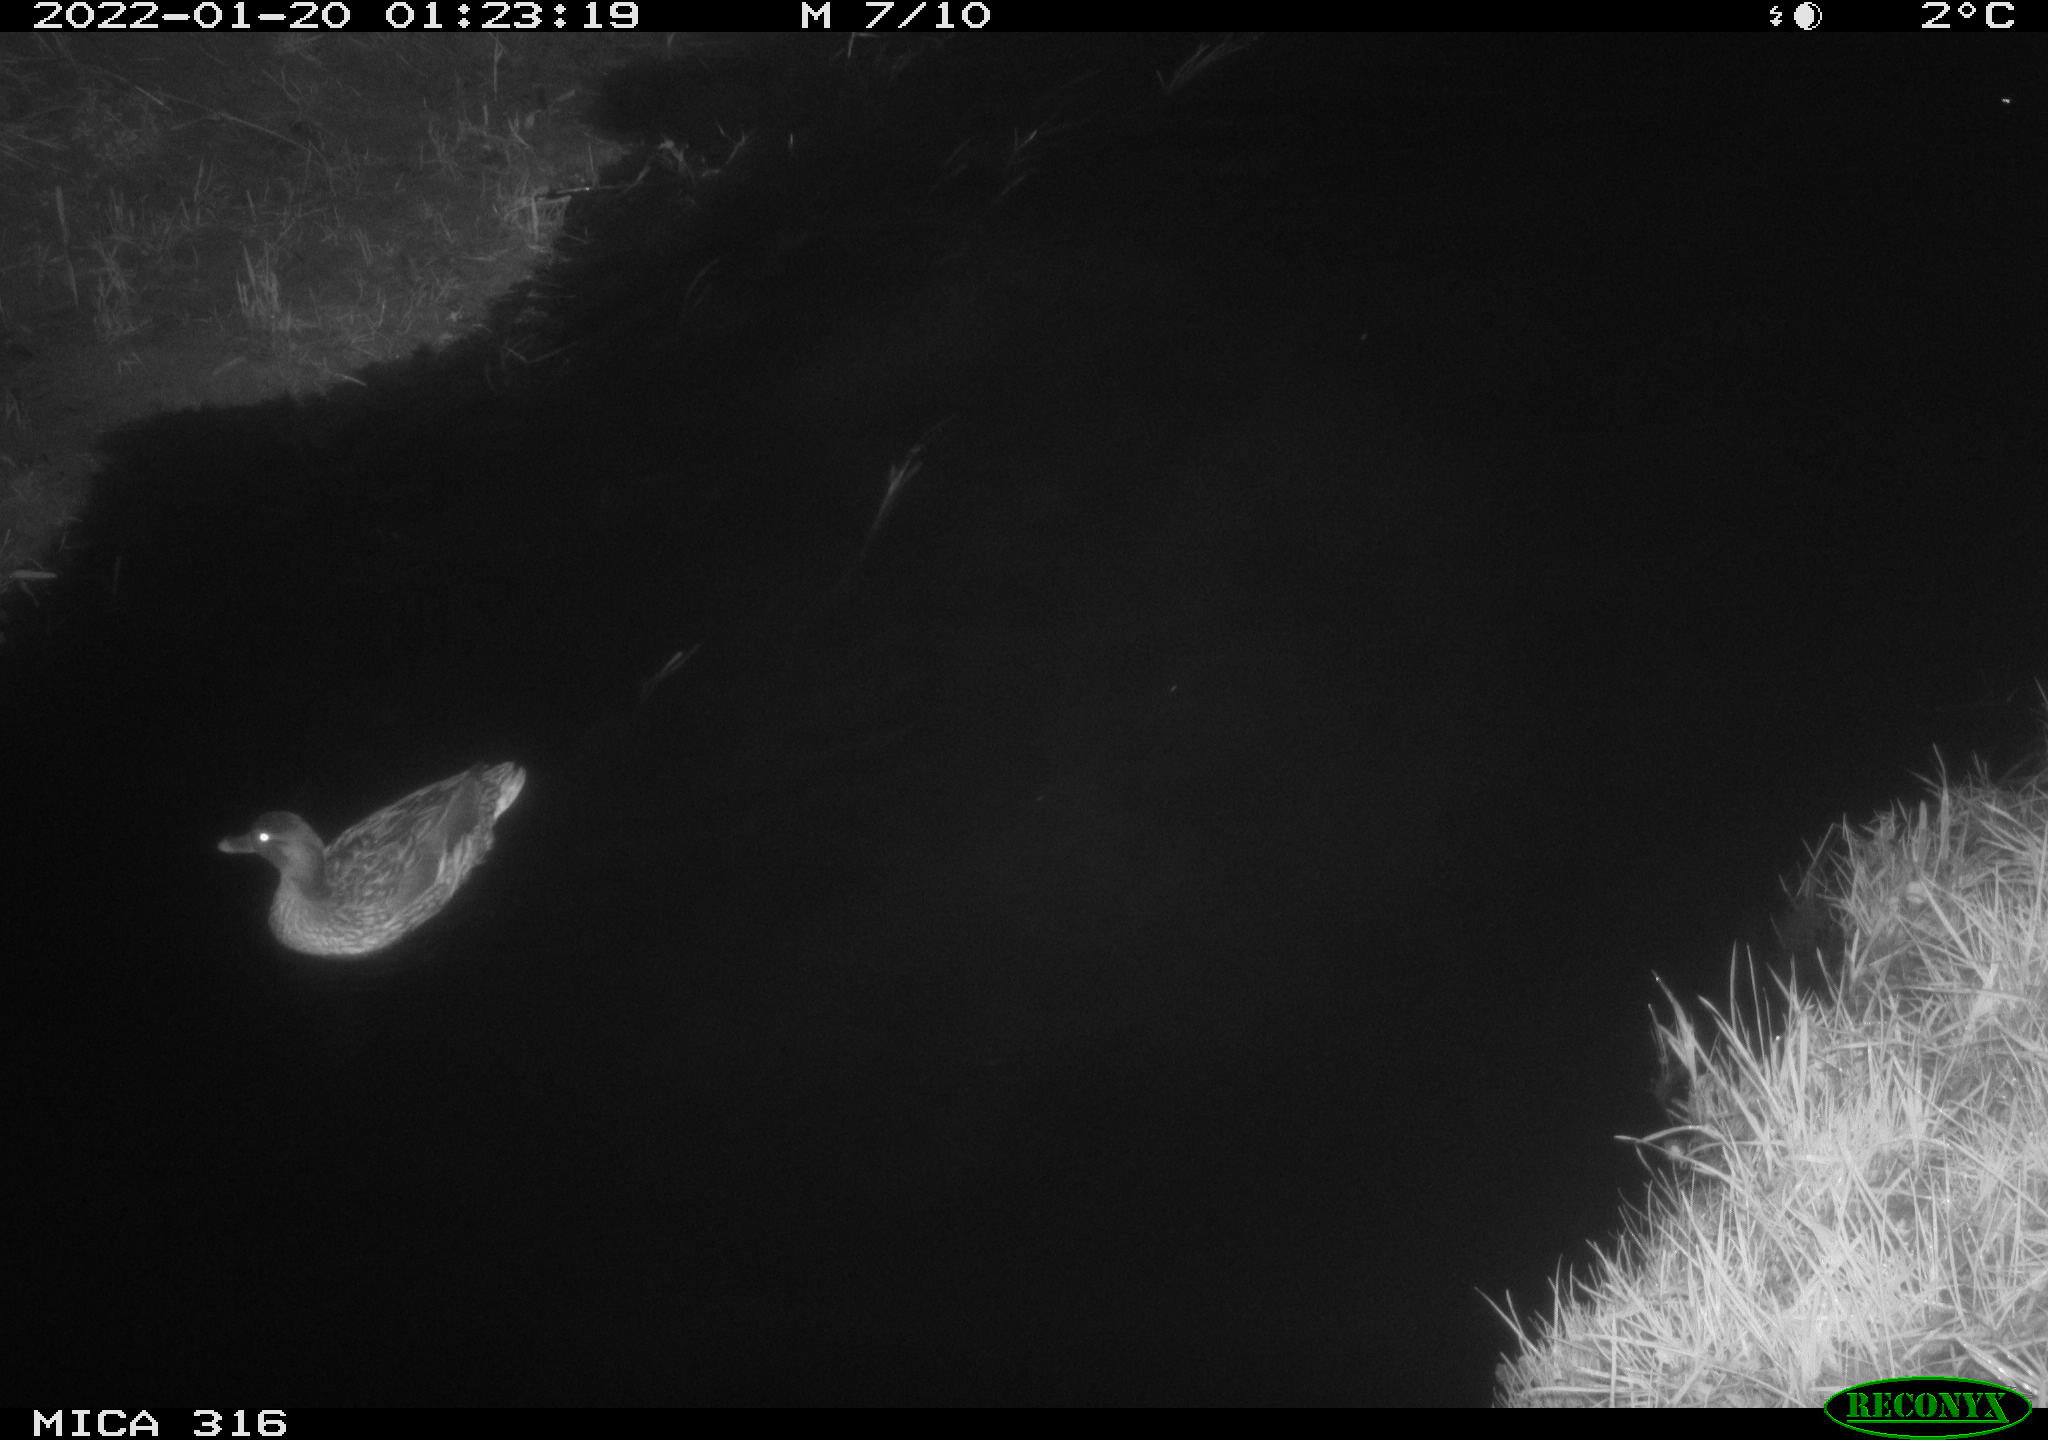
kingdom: Animalia
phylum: Chordata
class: Aves
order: Anseriformes
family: Anatidae
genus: Anas
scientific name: Anas platyrhynchos
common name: Mallard
